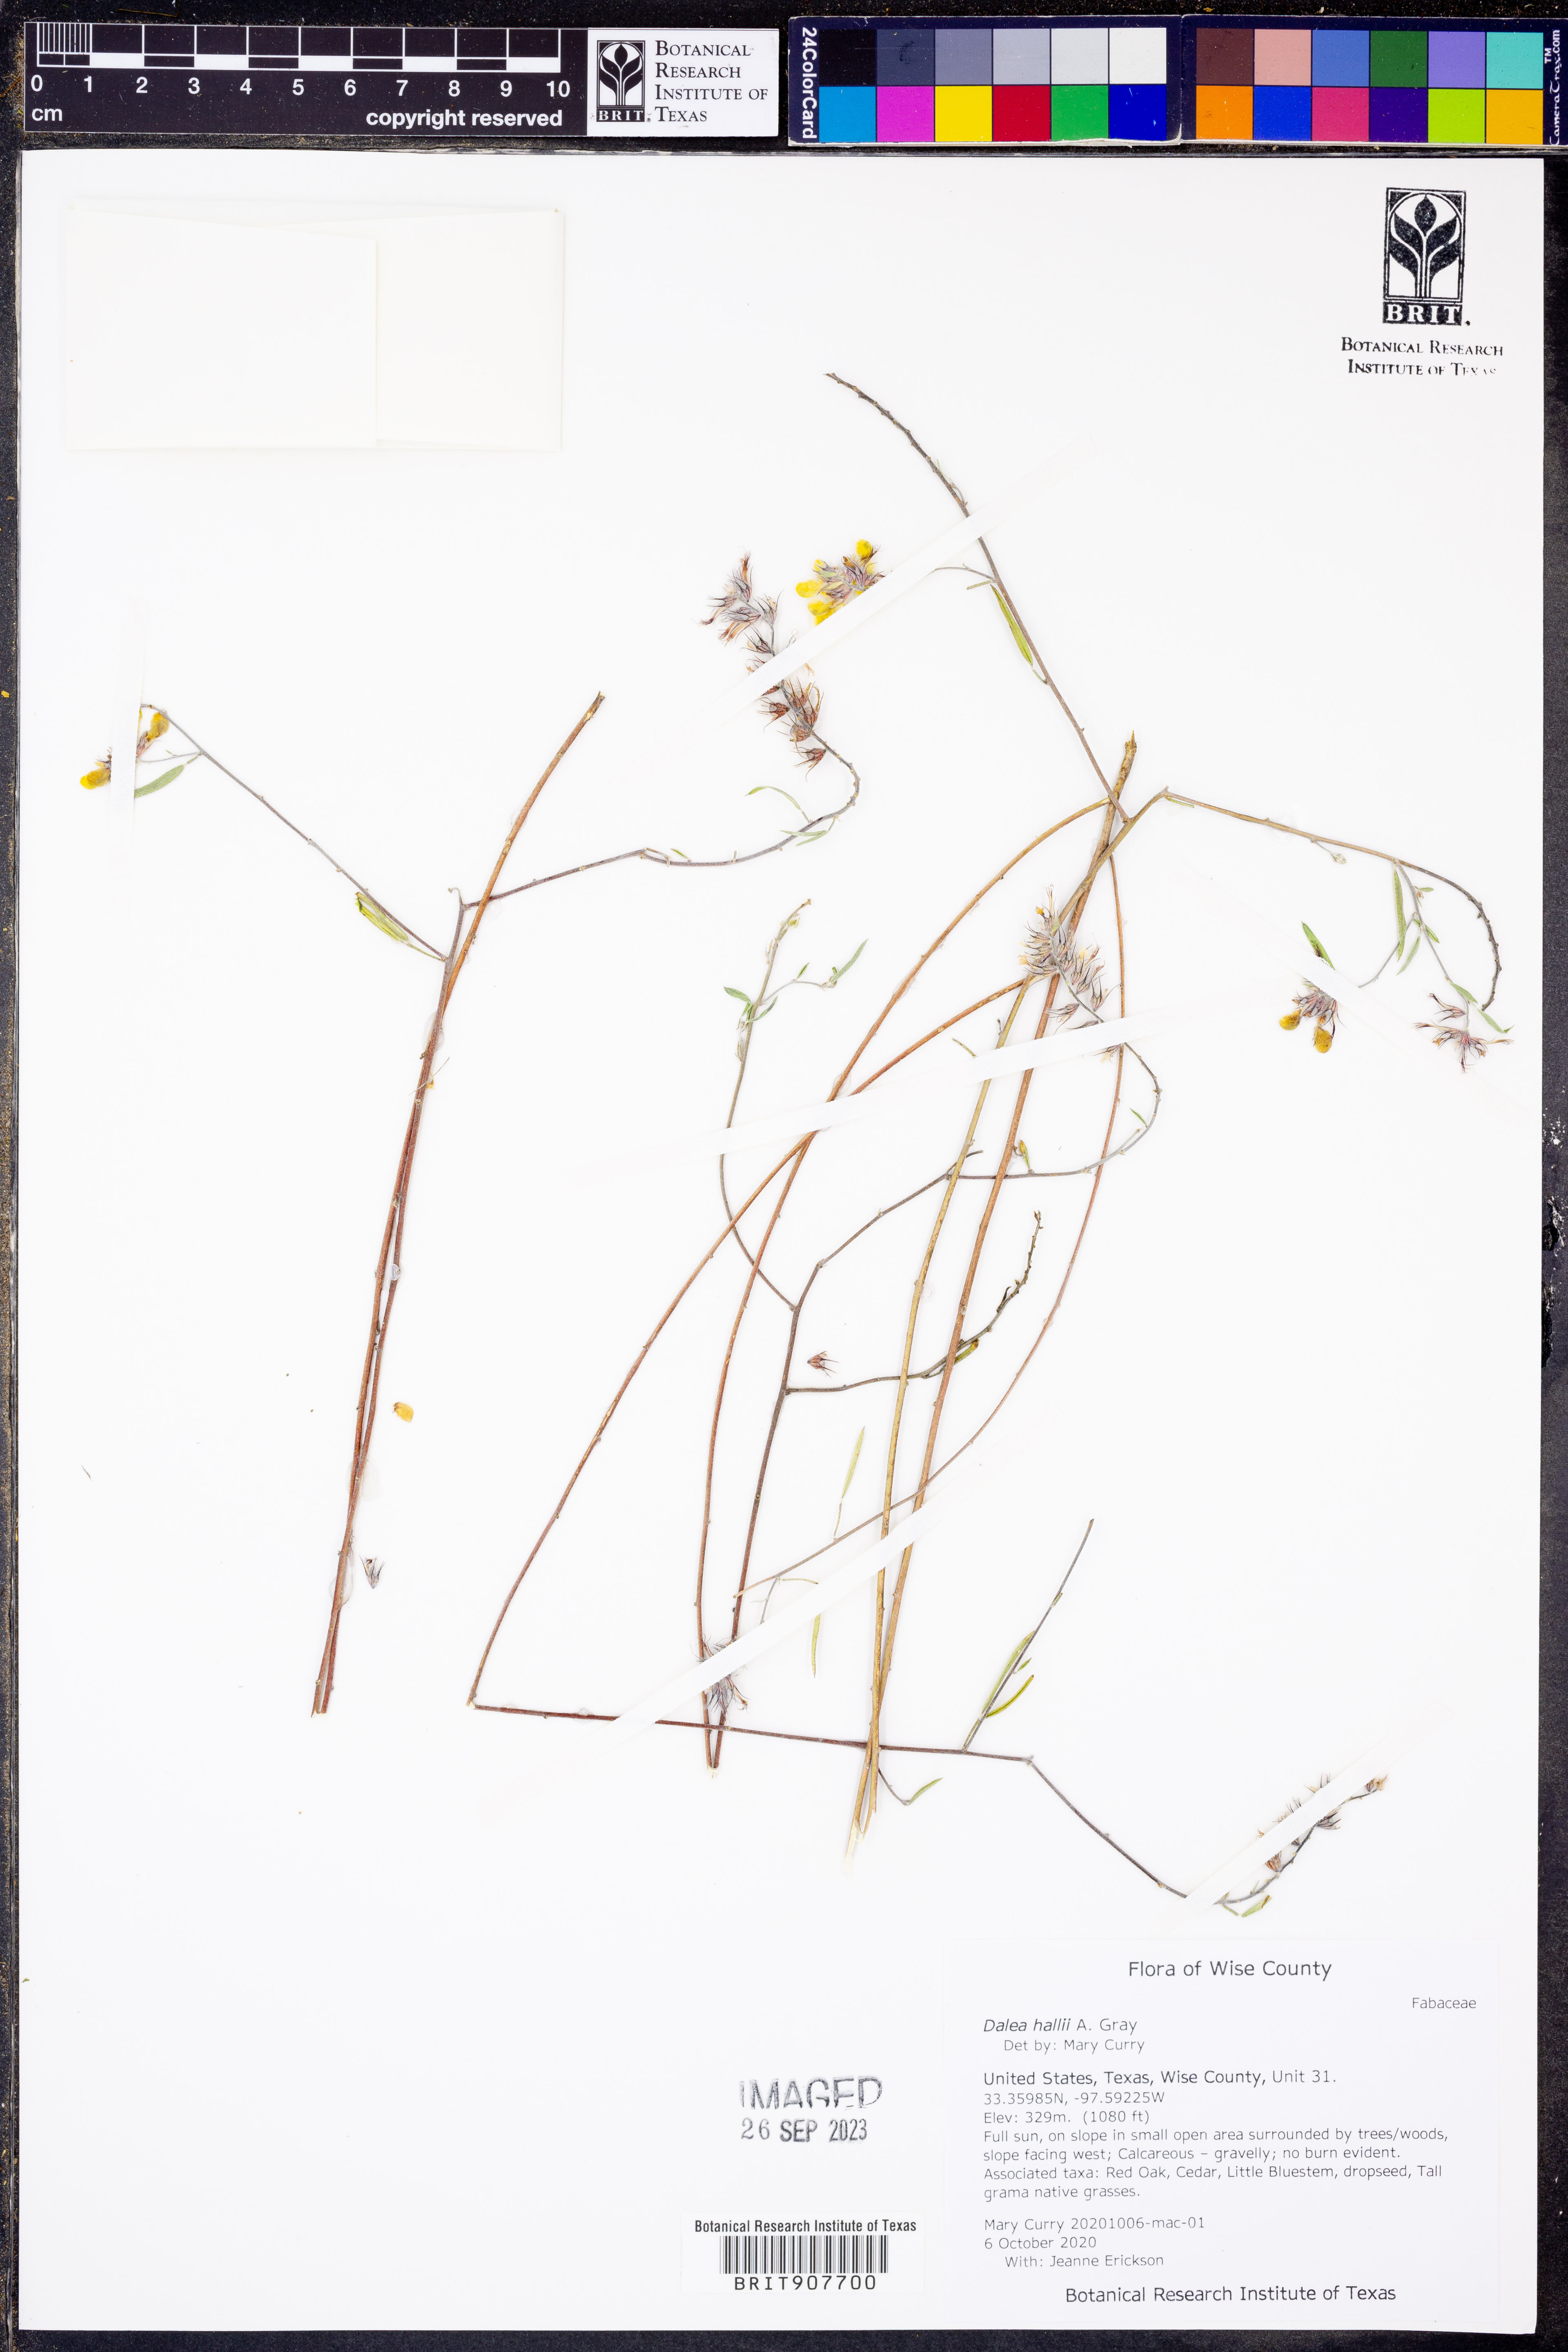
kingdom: Plantae
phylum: Tracheophyta
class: Magnoliopsida
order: Fabales
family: Fabaceae
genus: Dalea
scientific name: Dalea hallii
